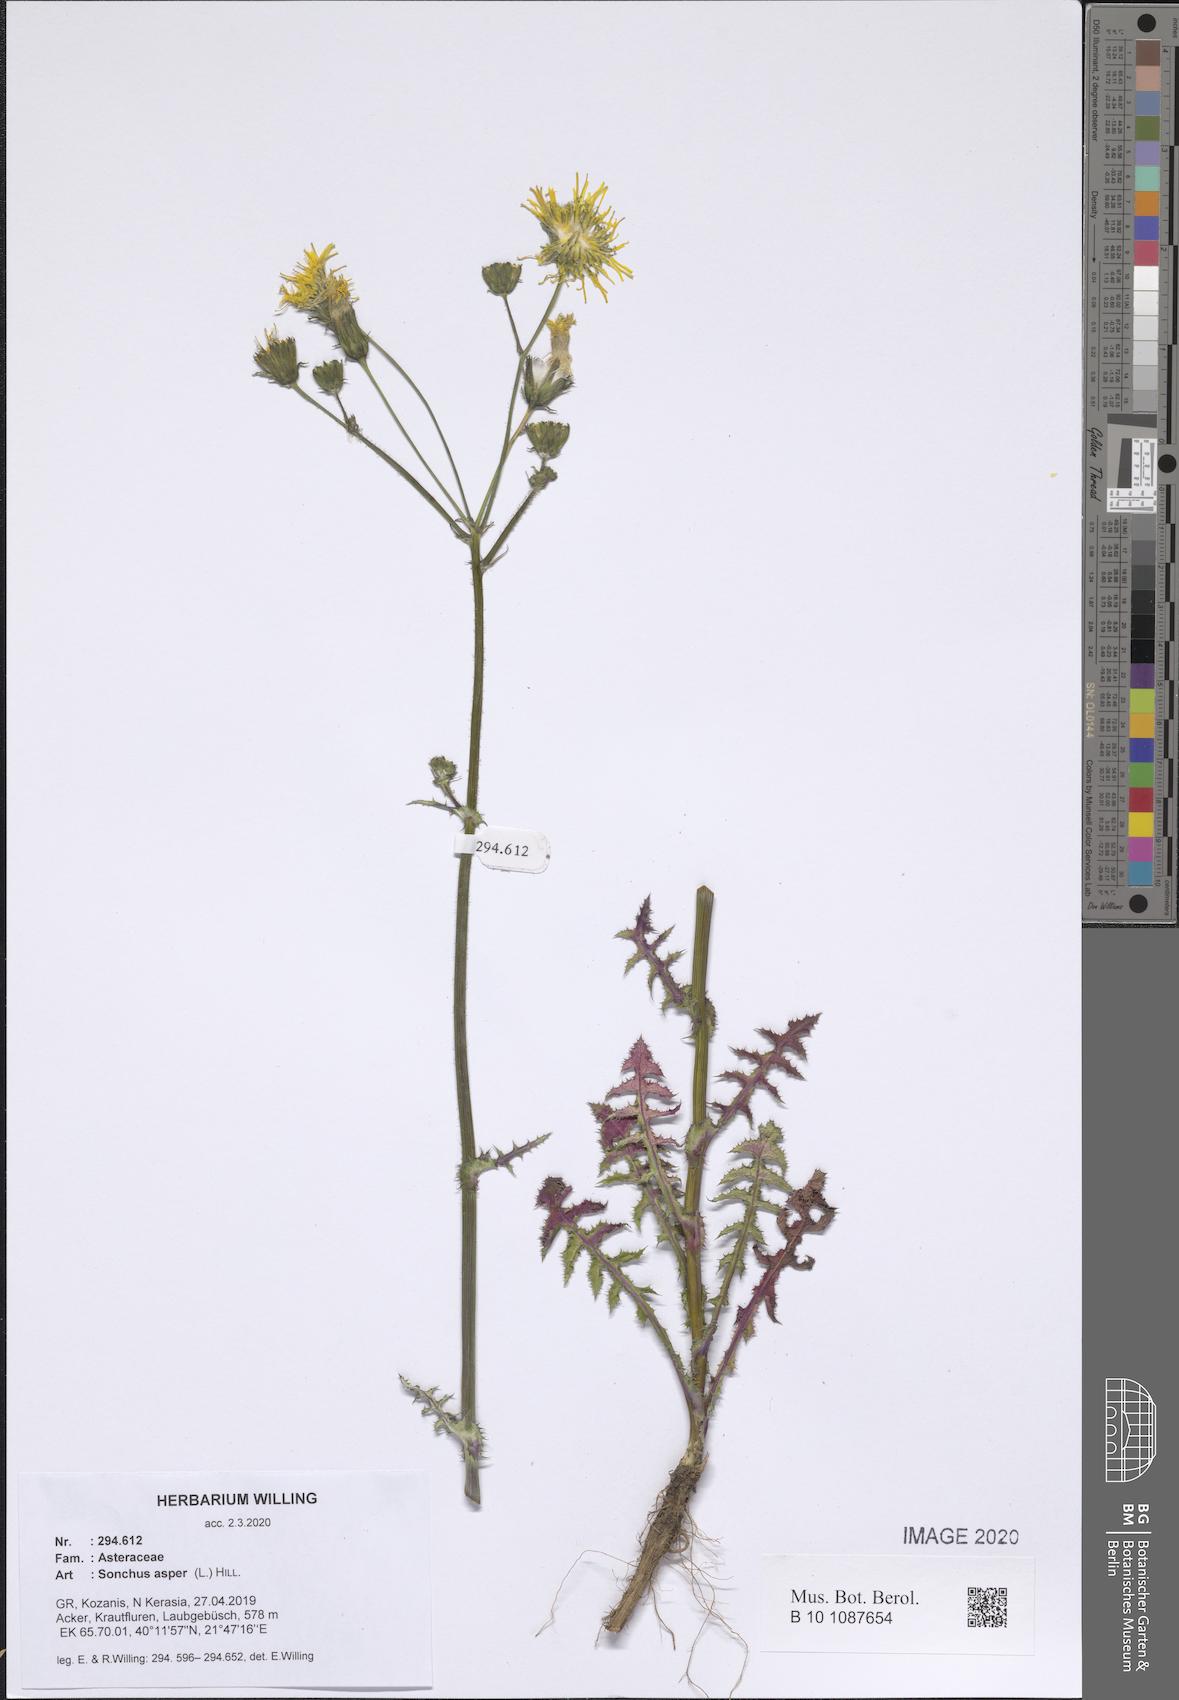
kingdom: Plantae
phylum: Tracheophyta
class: Magnoliopsida
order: Asterales
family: Asteraceae
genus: Sonchus
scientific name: Sonchus asper
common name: Prickly sow-thistle
